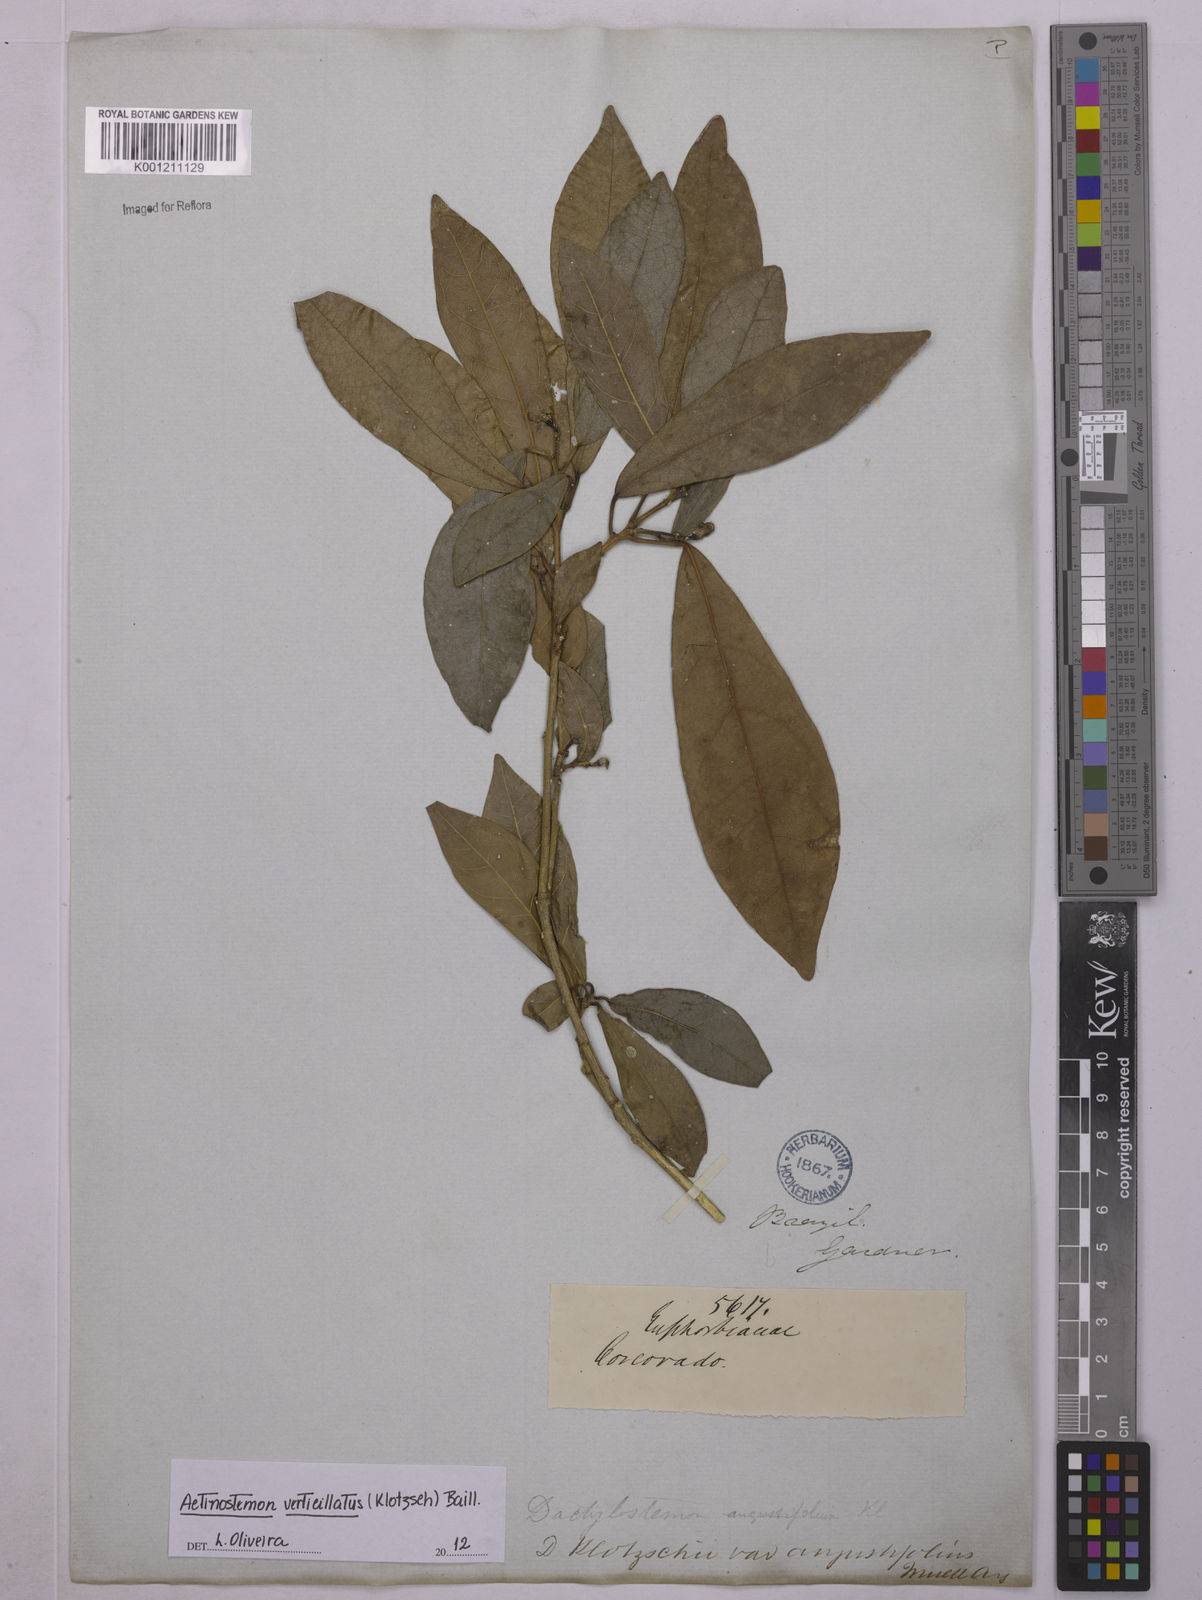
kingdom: Plantae
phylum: Tracheophyta
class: Magnoliopsida
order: Malpighiales
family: Euphorbiaceae
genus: Actinostemon
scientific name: Actinostemon verticillatus
